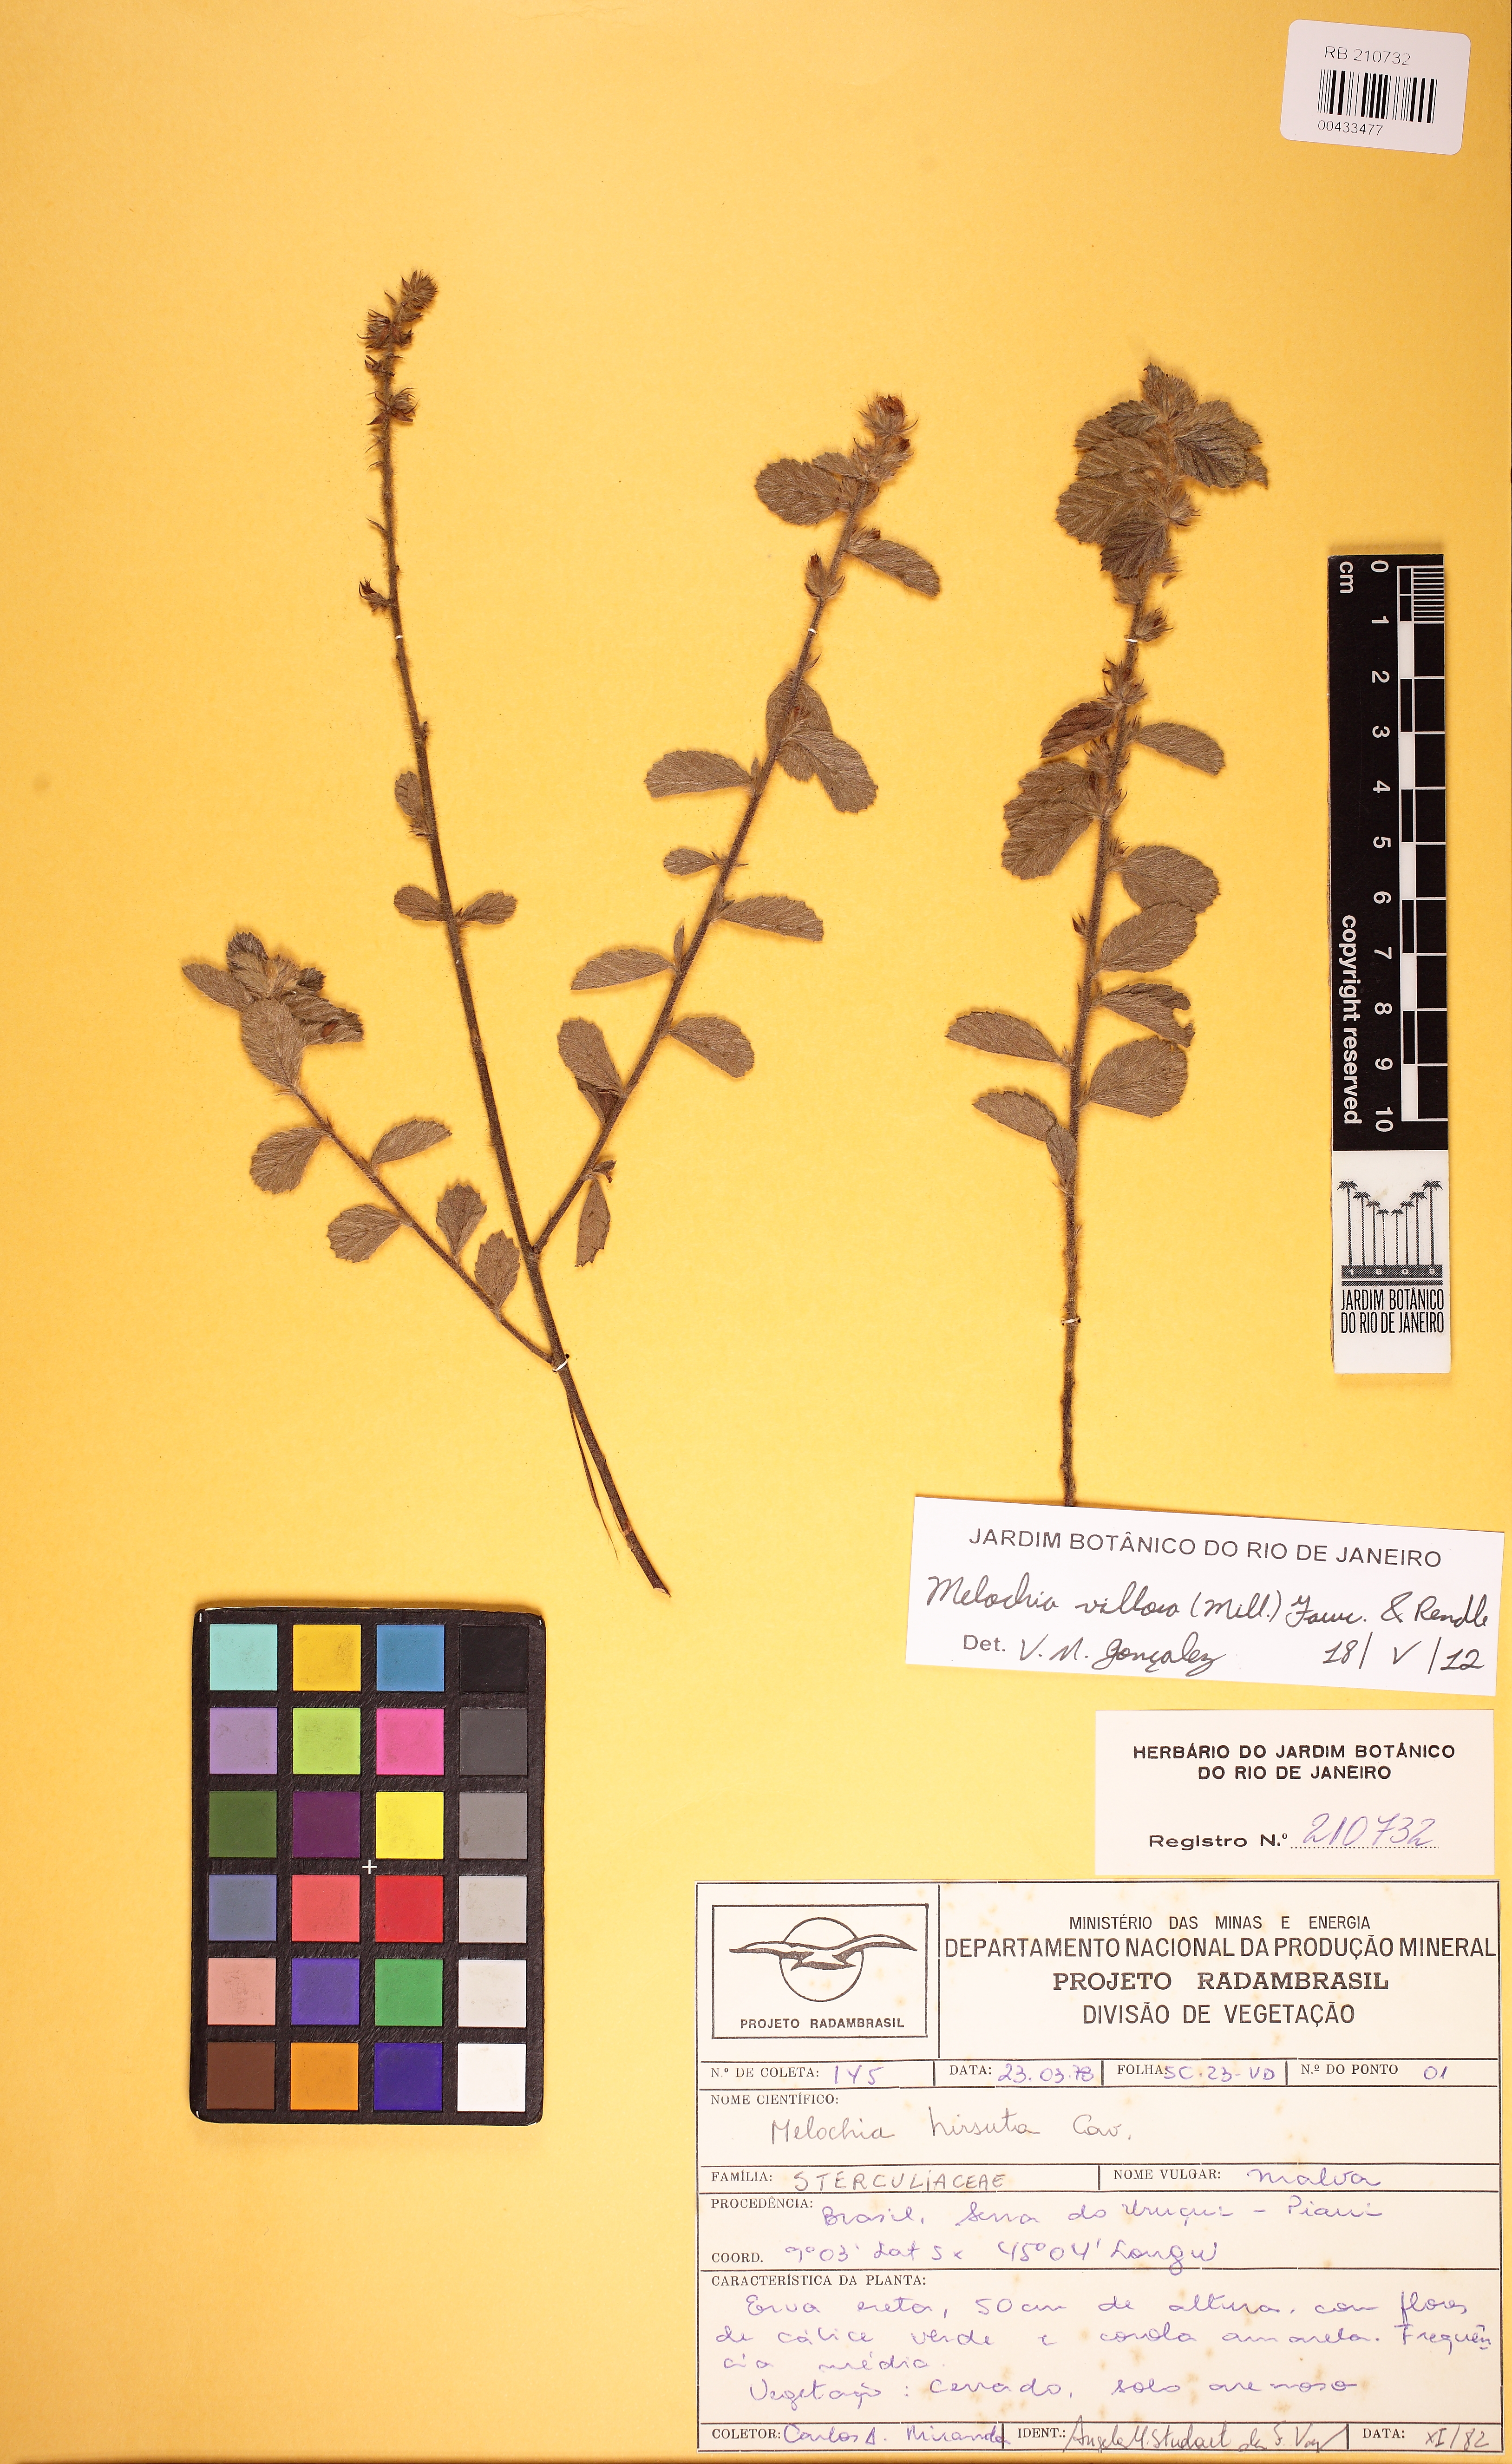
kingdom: Plantae
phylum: Tracheophyta
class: Magnoliopsida
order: Malvales
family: Malvaceae
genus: Melochia
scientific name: Melochia spicata
